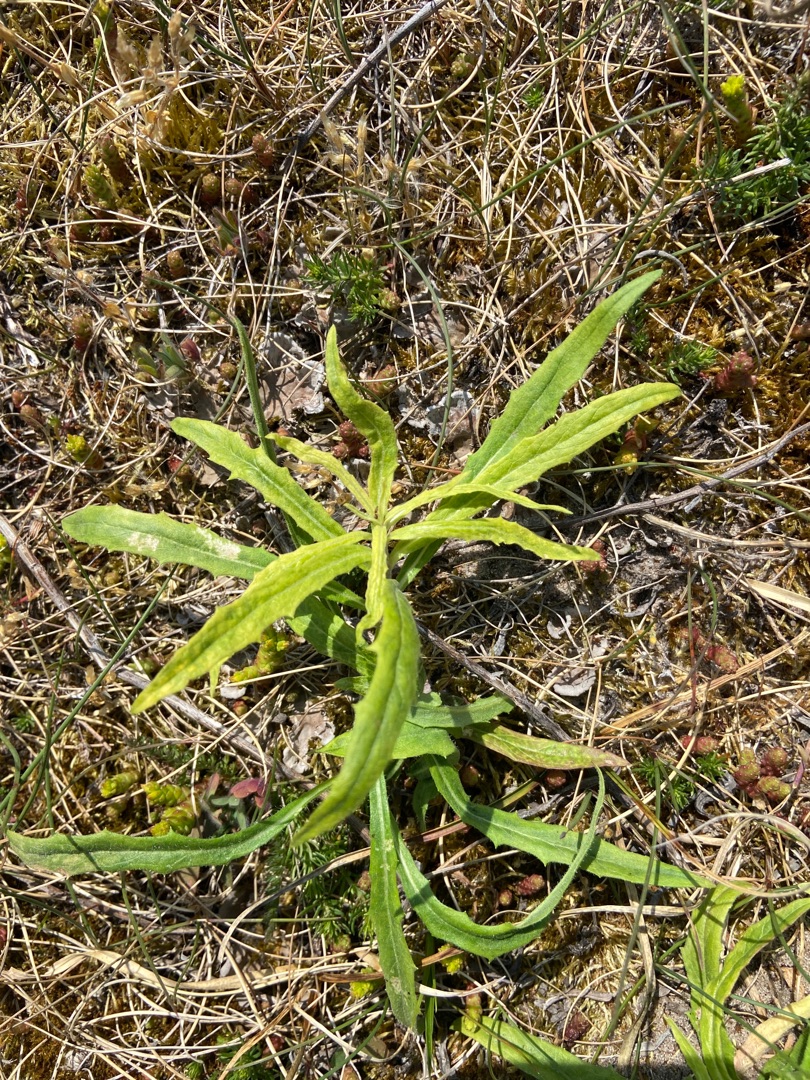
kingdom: Plantae
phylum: Tracheophyta
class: Magnoliopsida
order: Asterales
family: Asteraceae
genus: Hieracioides
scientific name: Hieracioides
